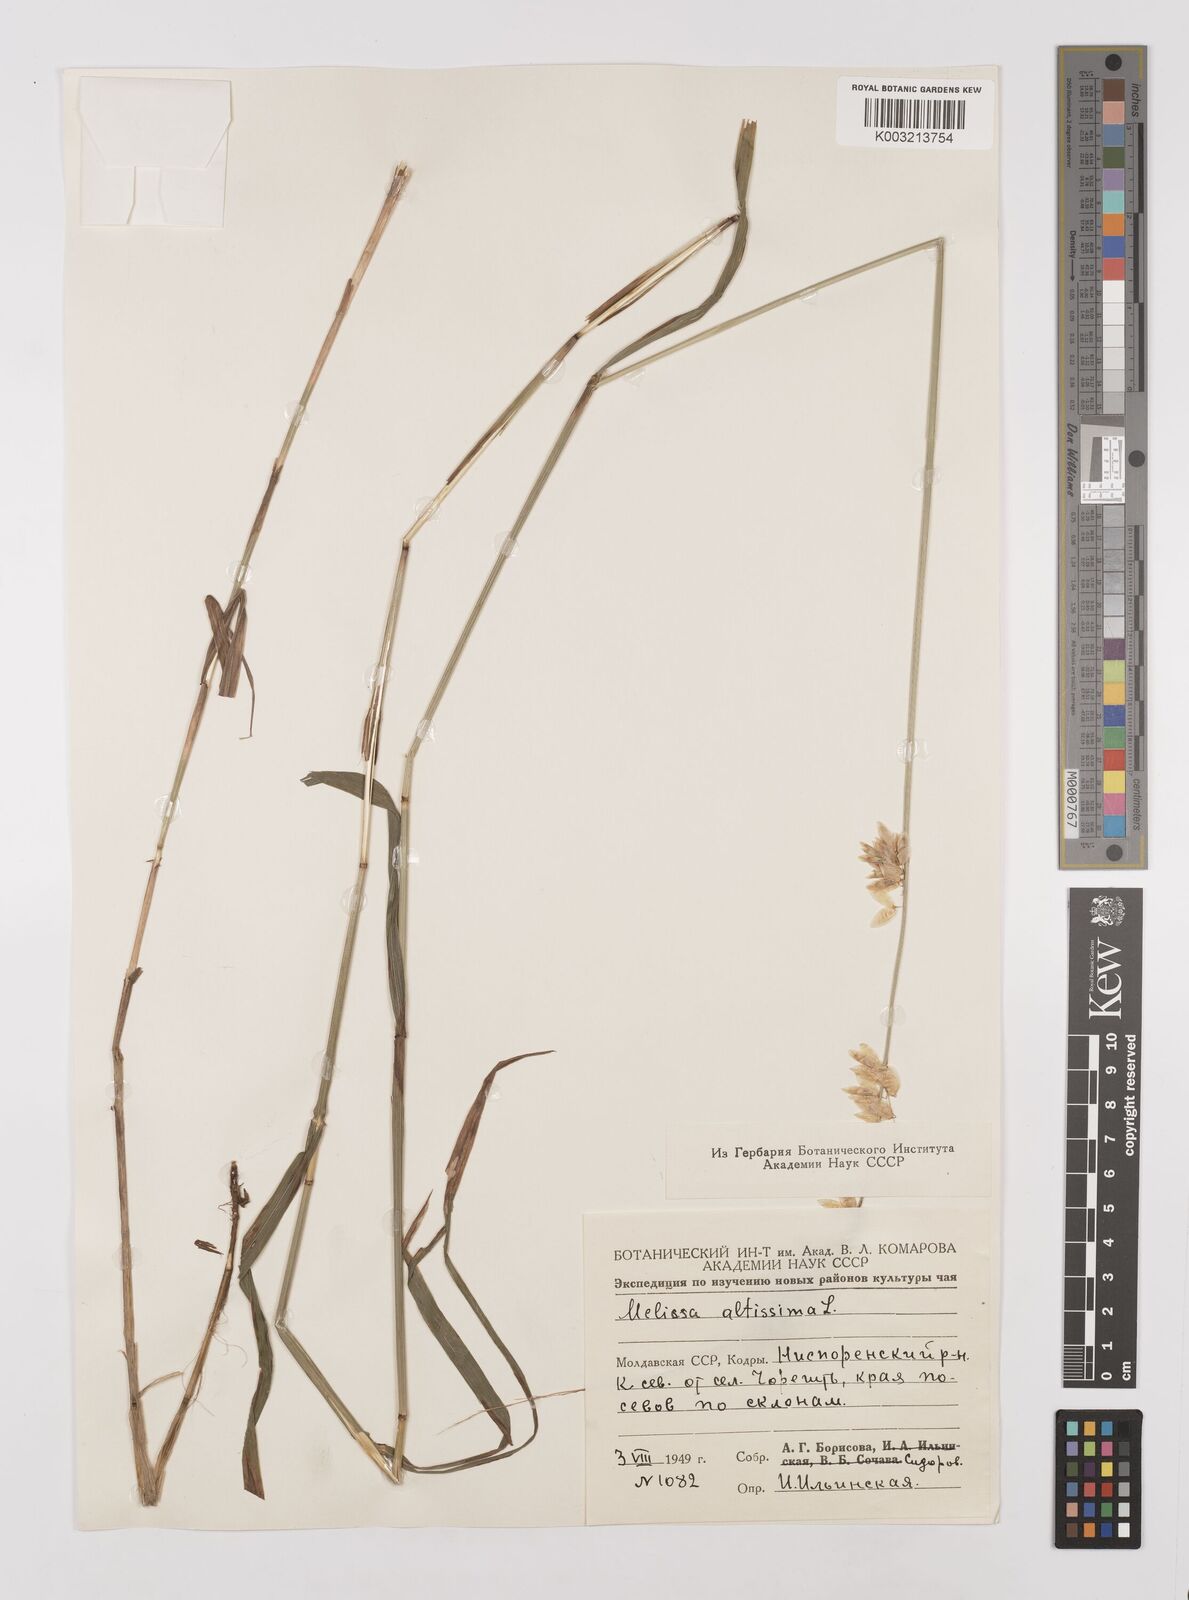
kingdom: Plantae
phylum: Tracheophyta
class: Liliopsida
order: Poales
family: Poaceae
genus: Melica
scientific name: Melica
